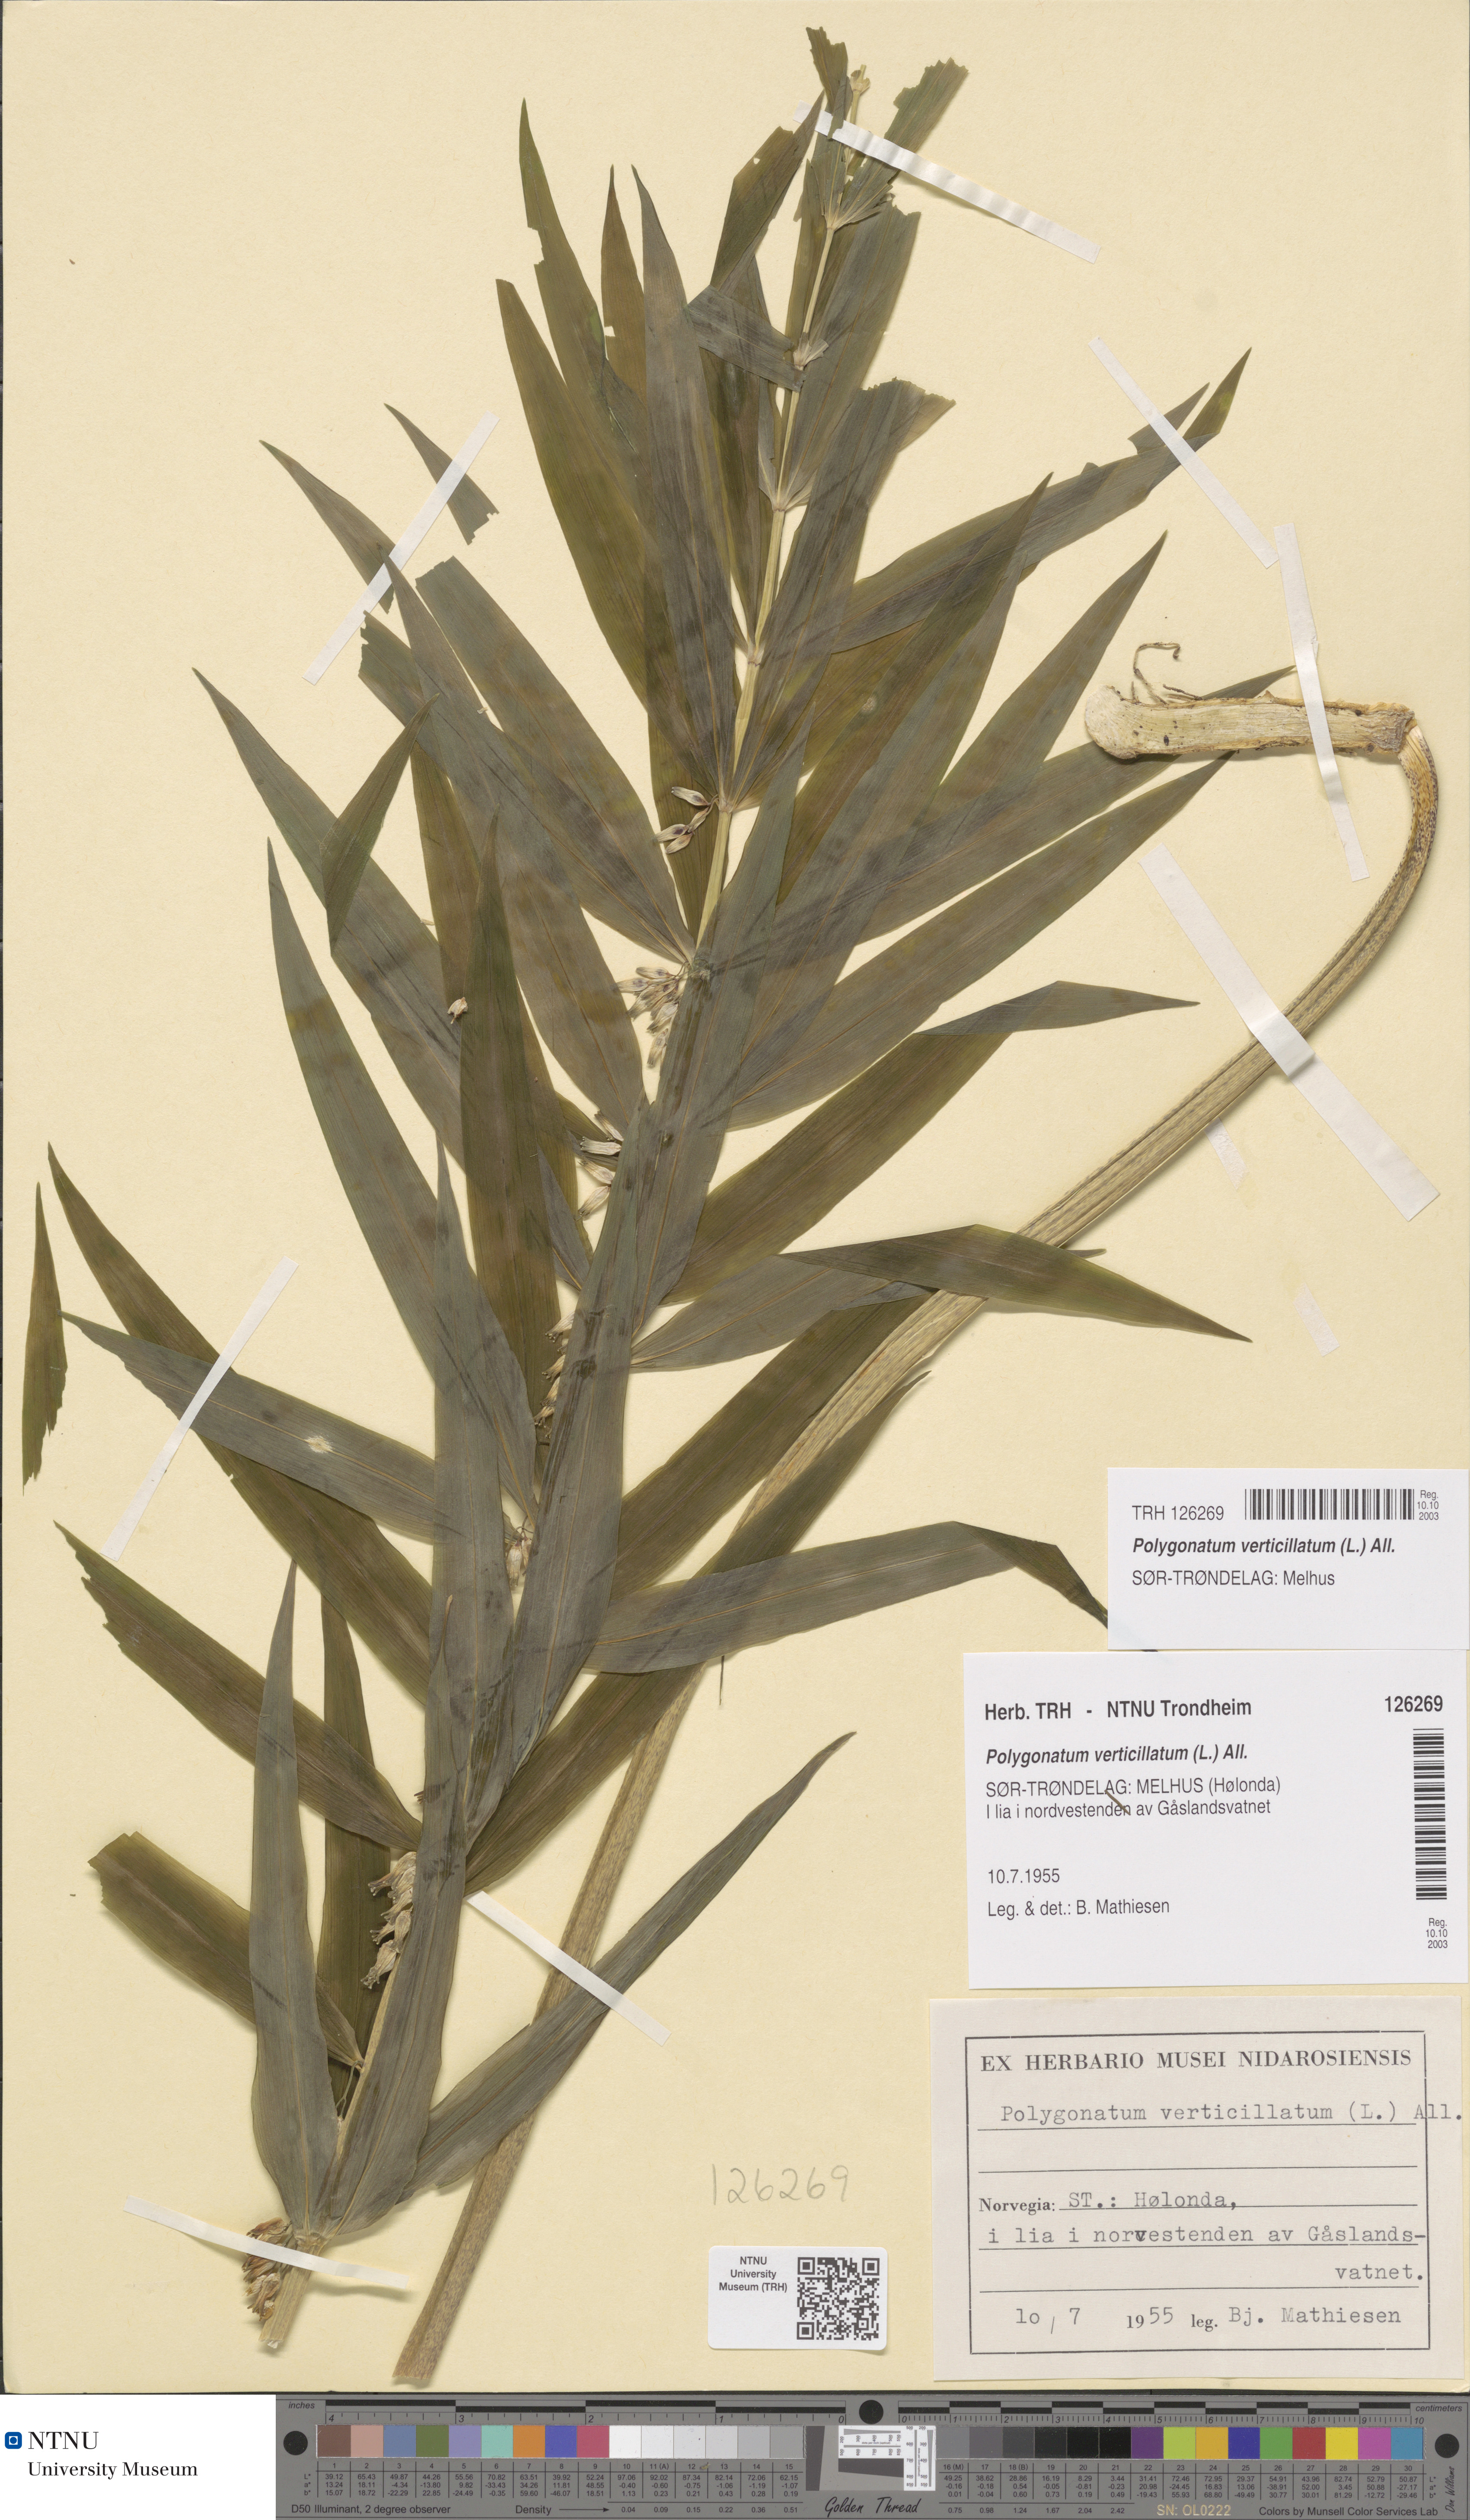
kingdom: Plantae
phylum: Tracheophyta
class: Liliopsida
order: Asparagales
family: Asparagaceae
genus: Polygonatum
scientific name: Polygonatum verticillatum
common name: Whorled solomon's-seal
